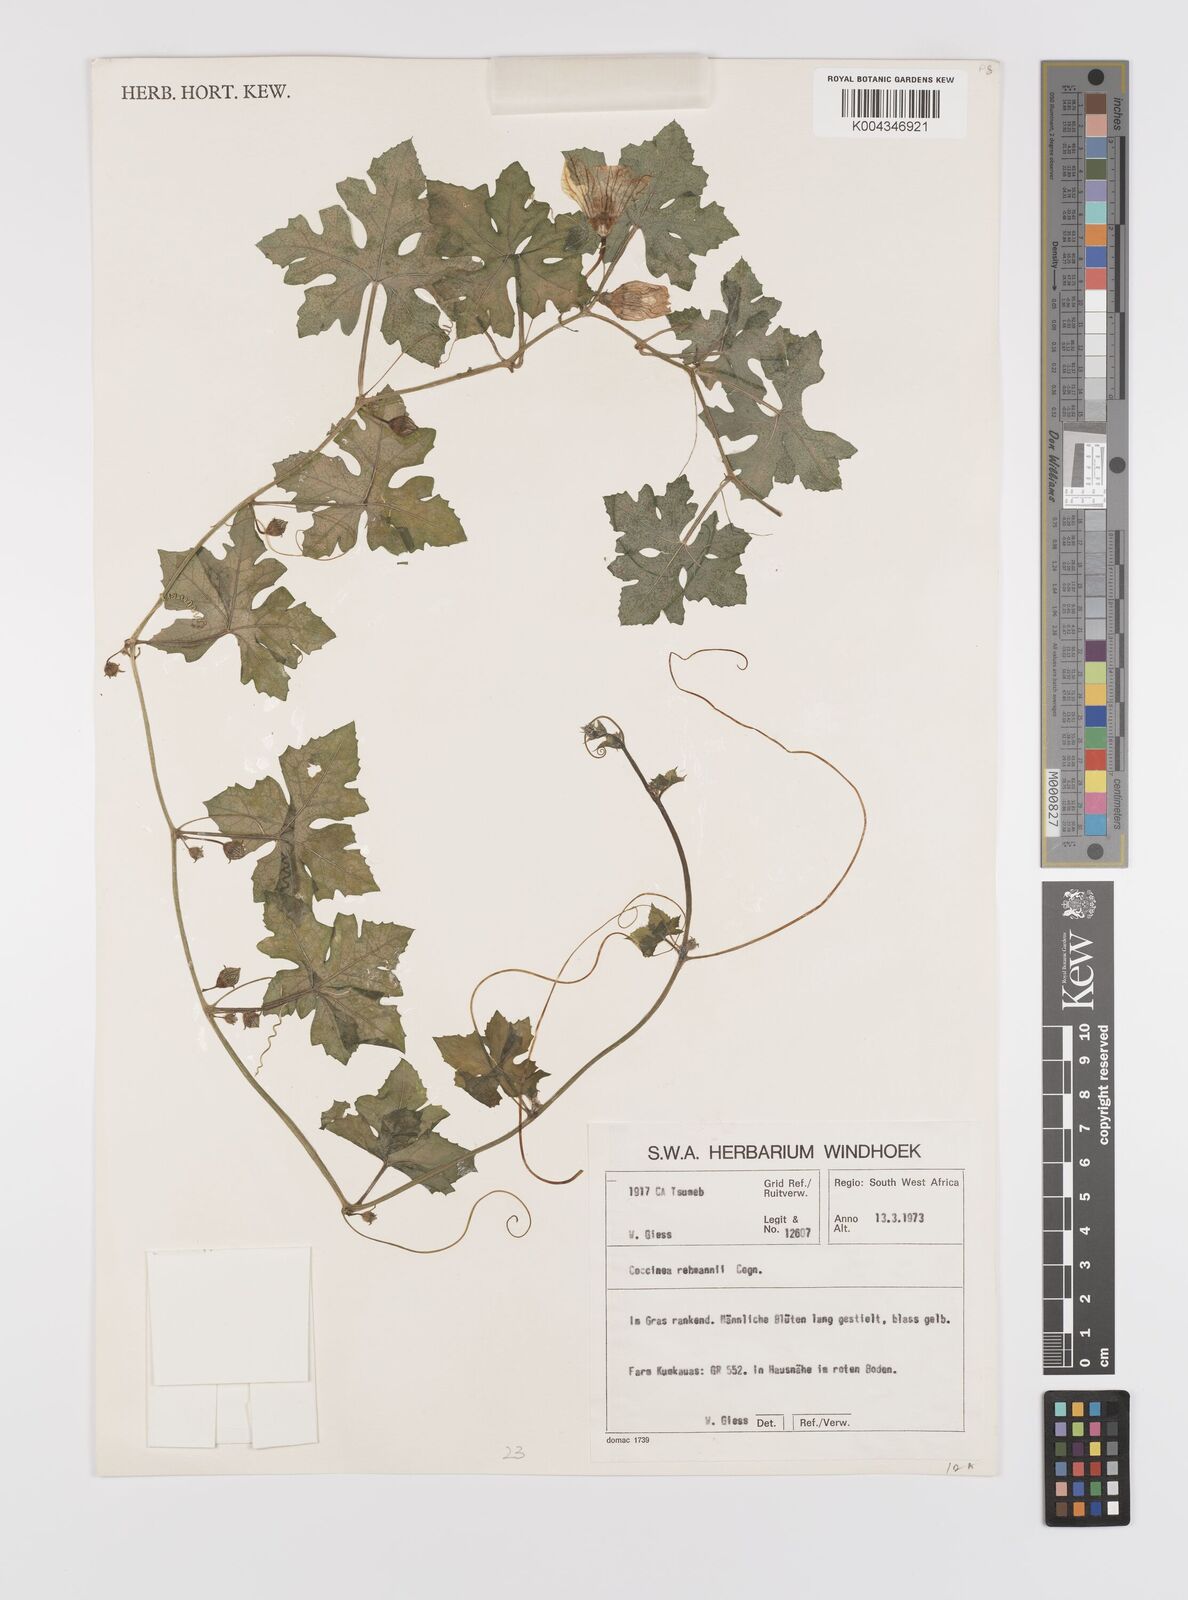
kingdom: Plantae
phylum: Tracheophyta
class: Magnoliopsida
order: Cucurbitales
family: Cucurbitaceae
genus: Coccinia
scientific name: Coccinia rehmannii
